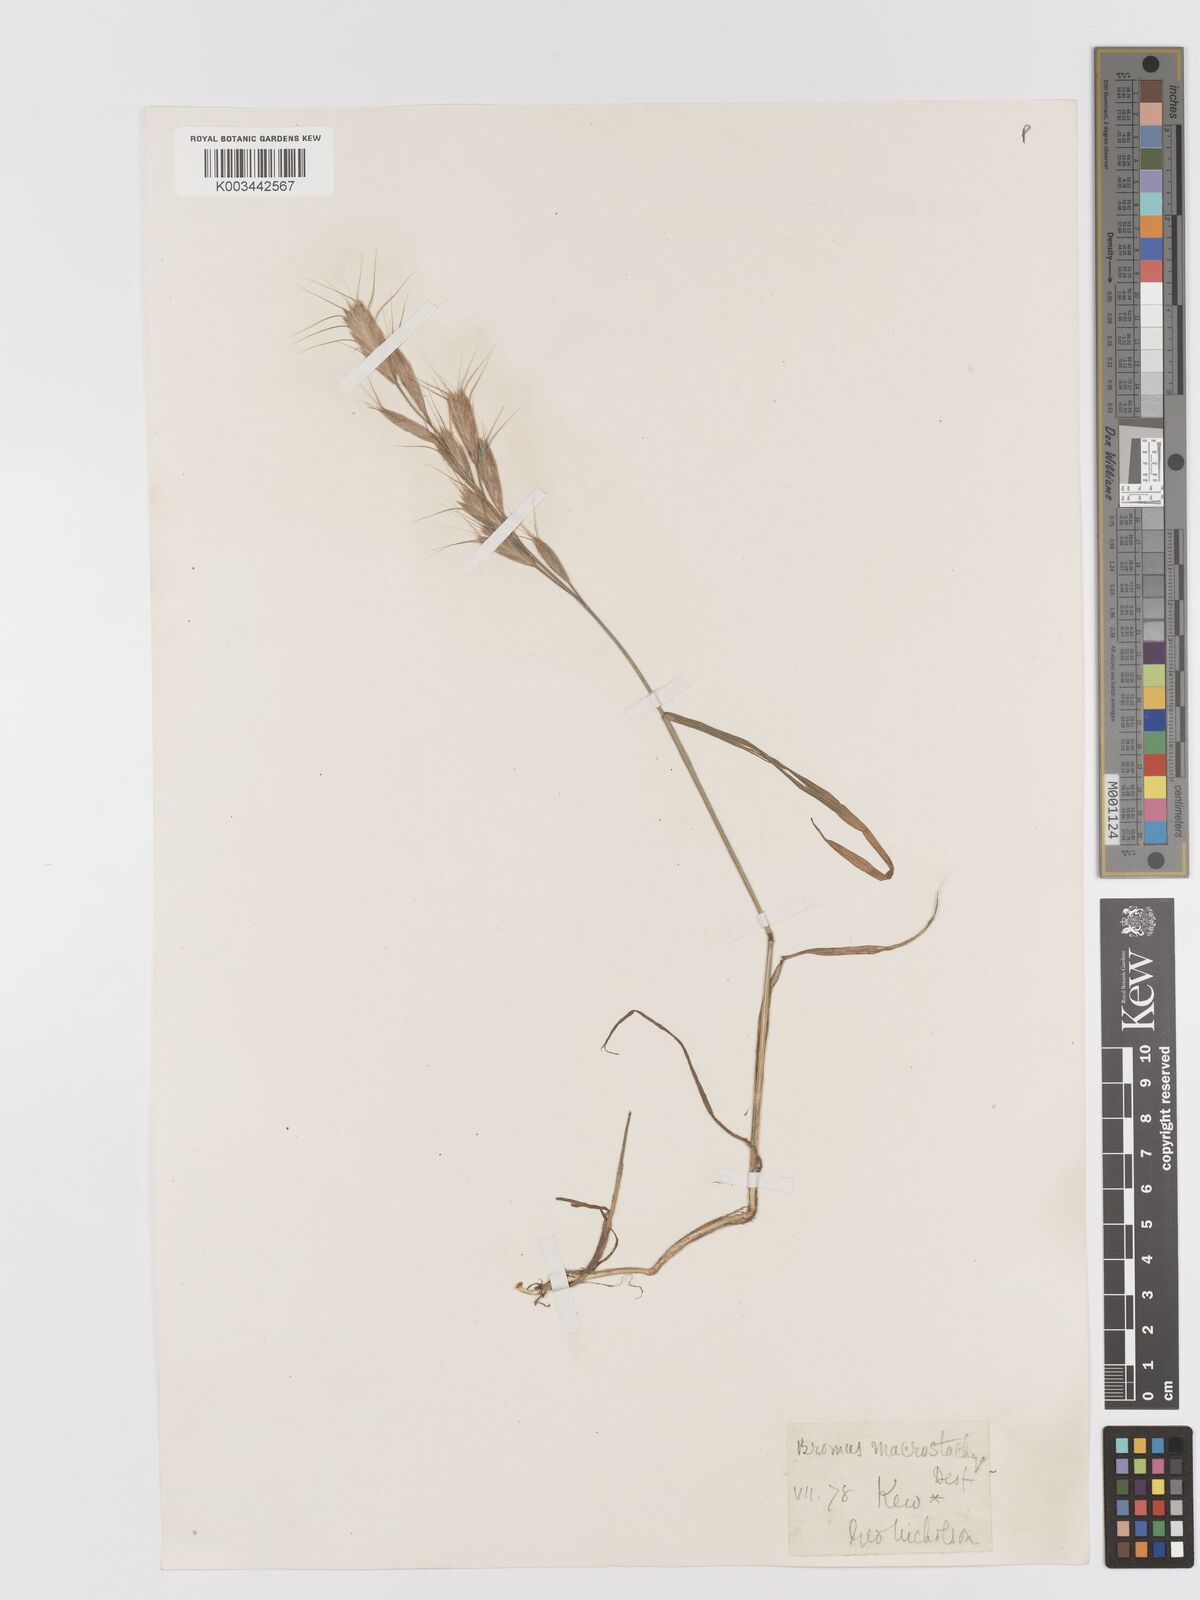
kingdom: Plantae
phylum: Tracheophyta
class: Liliopsida
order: Poales
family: Poaceae
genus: Bromus
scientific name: Bromus lanceolatus
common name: Mediterranean brome
